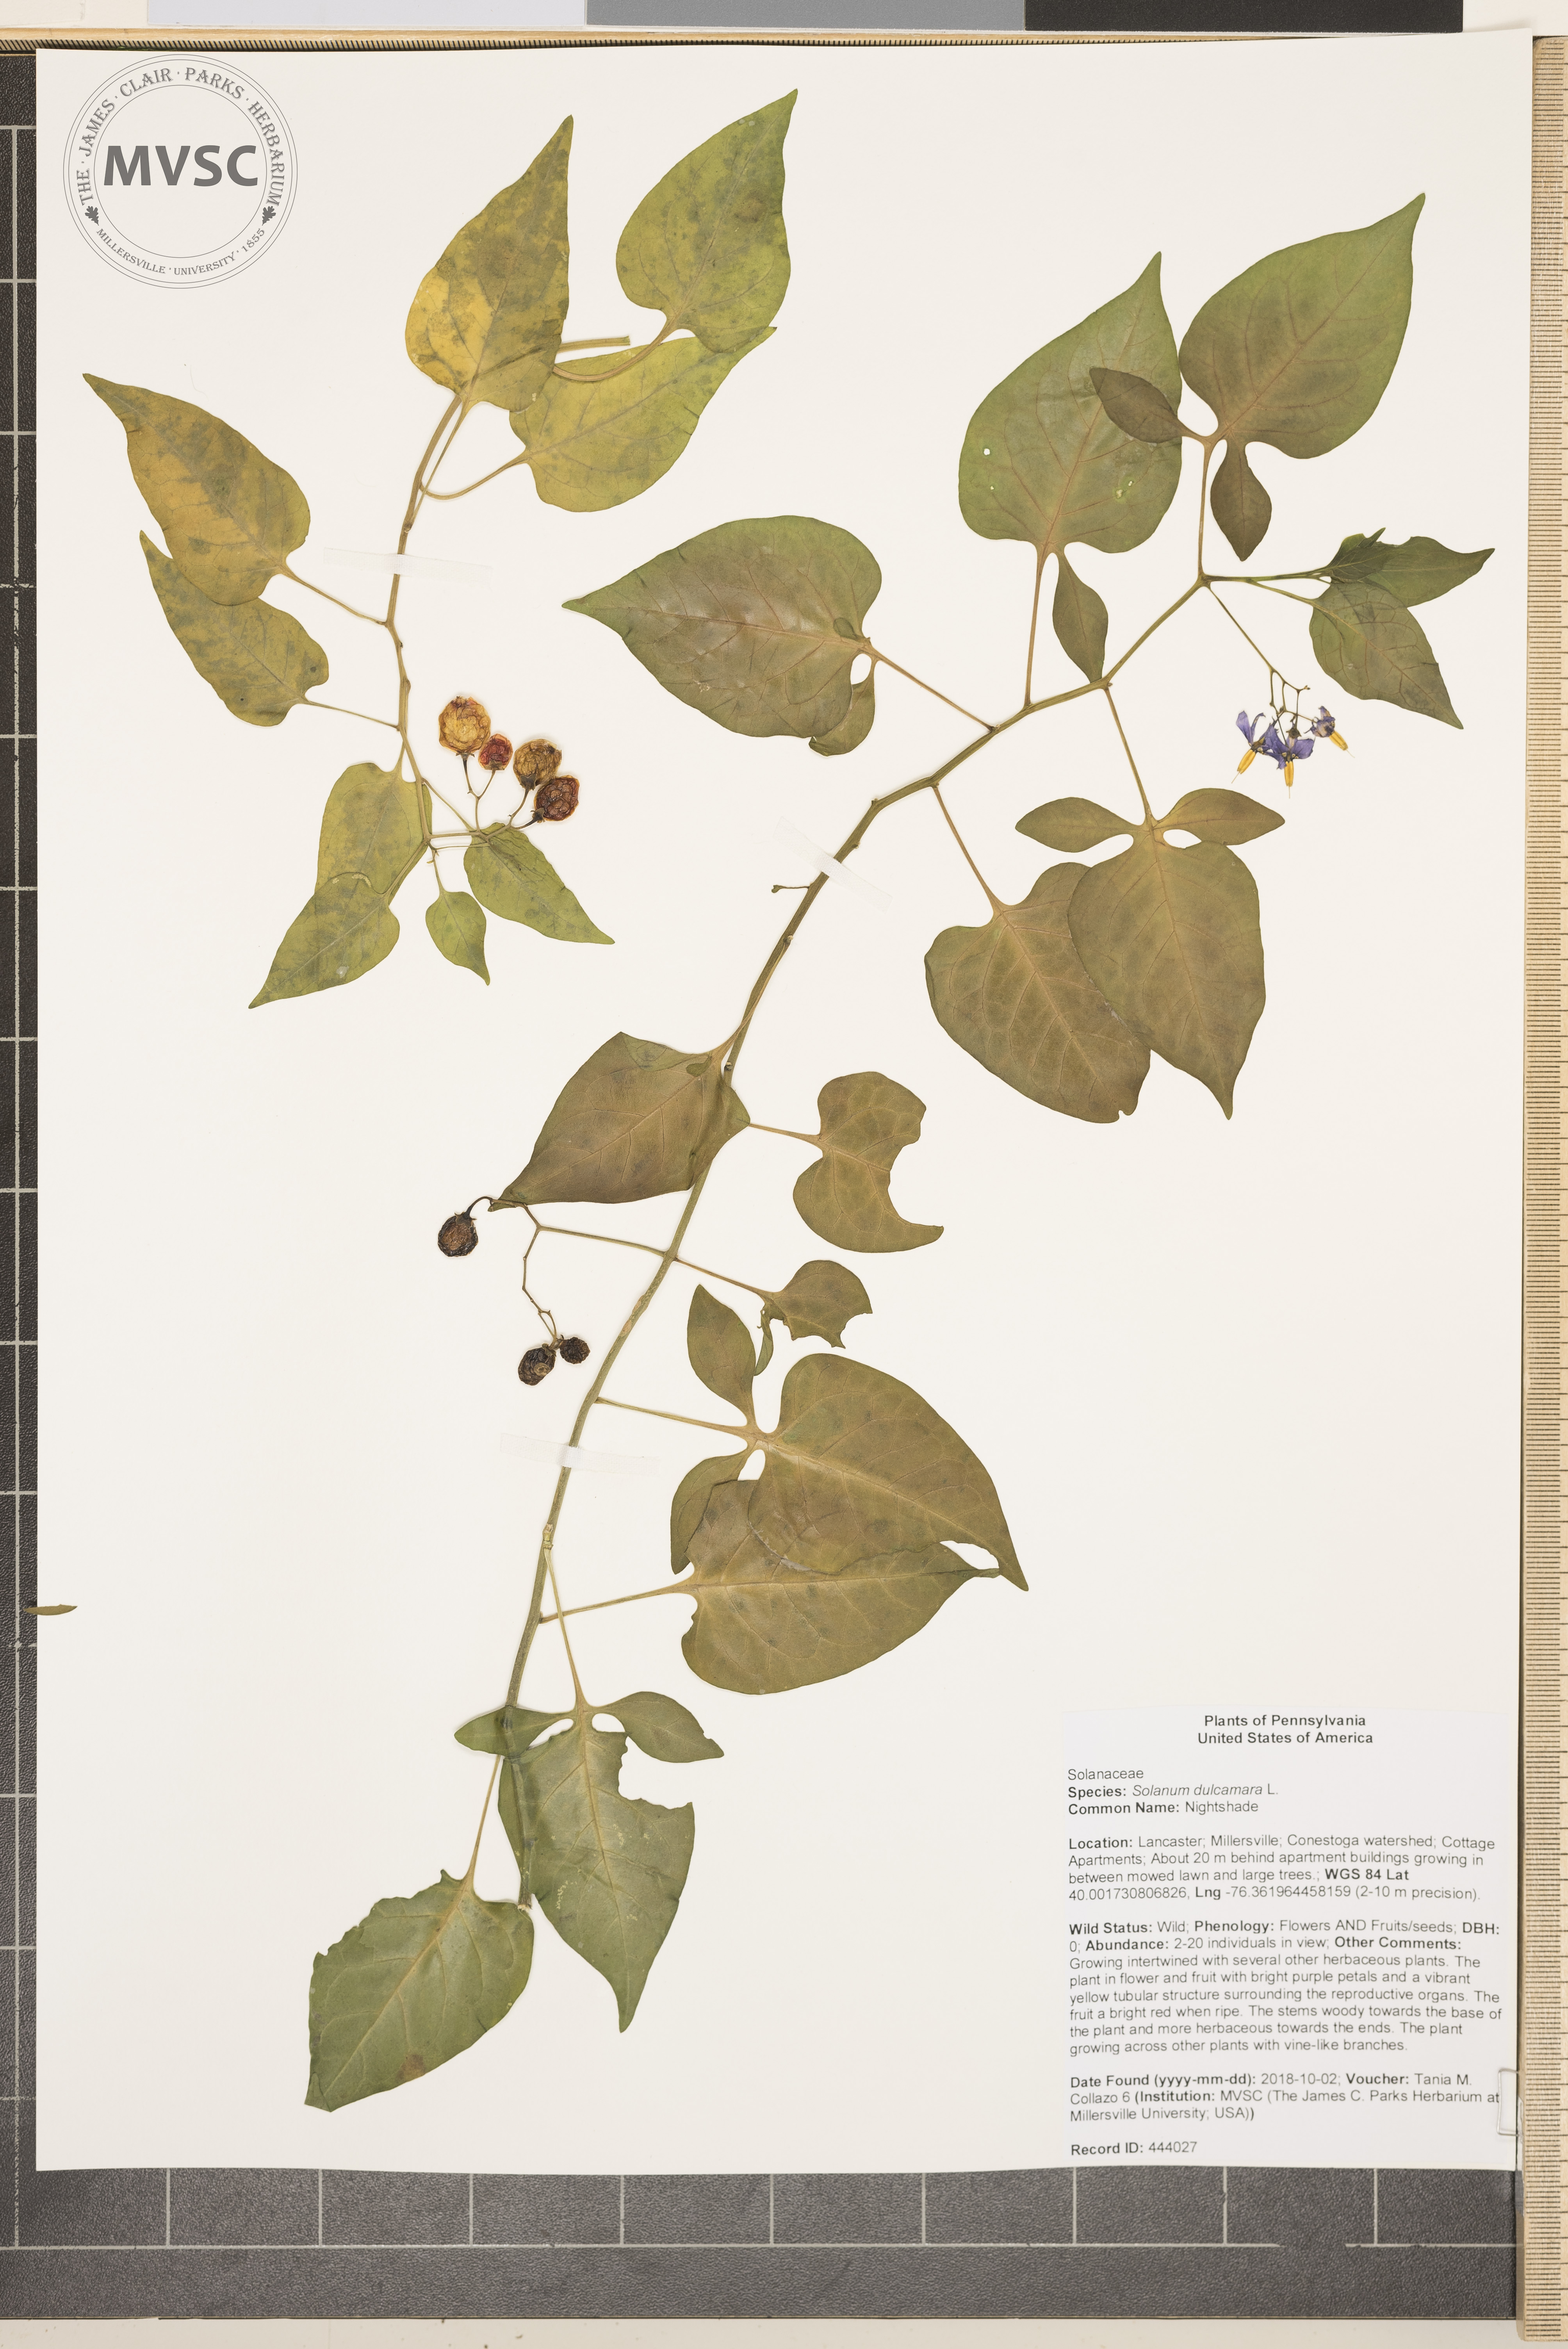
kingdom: Plantae
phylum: Tracheophyta
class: Magnoliopsida
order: Solanales
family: Solanaceae
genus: Solanum
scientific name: Solanum dulcamara
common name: Nightshade
